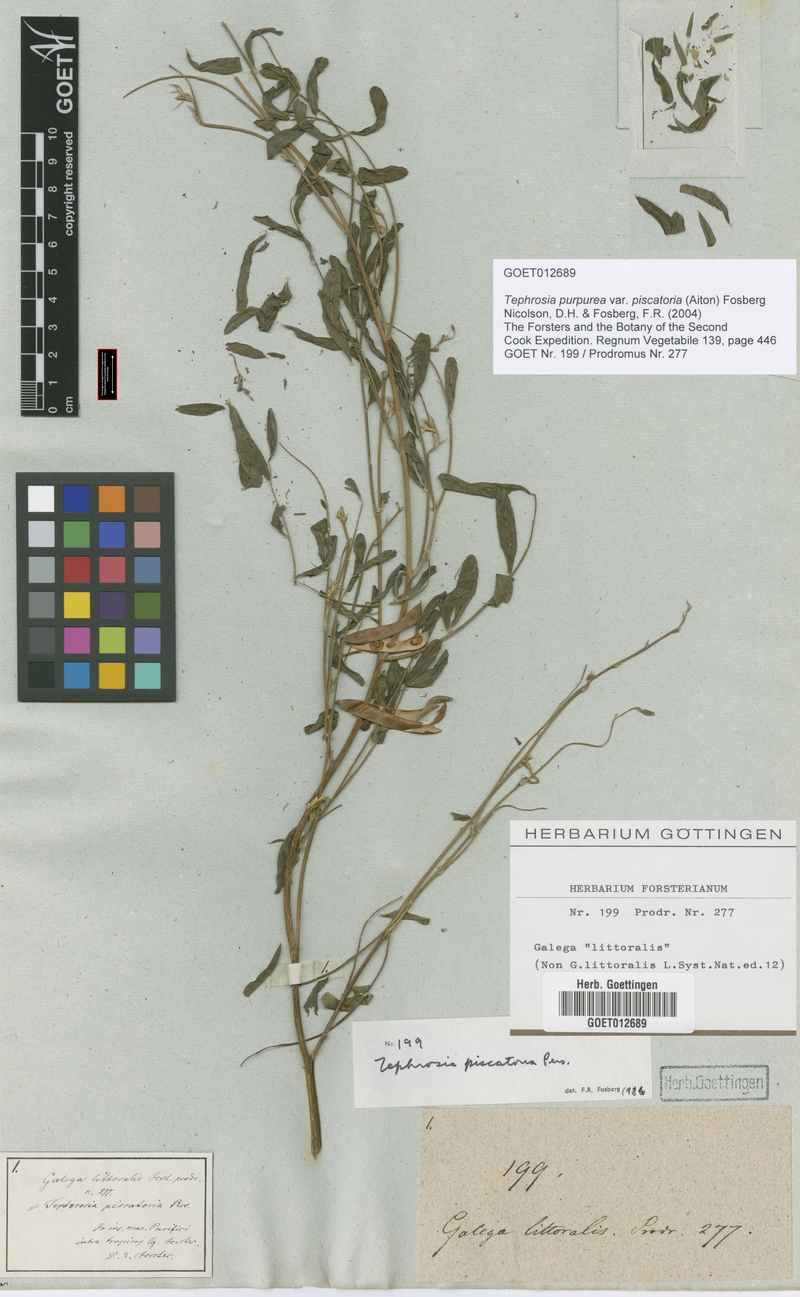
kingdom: Plantae
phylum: Tracheophyta
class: Magnoliopsida
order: Fabales
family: Fabaceae
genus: Tephrosia
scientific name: Tephrosia purpurea
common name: Fishpoison
